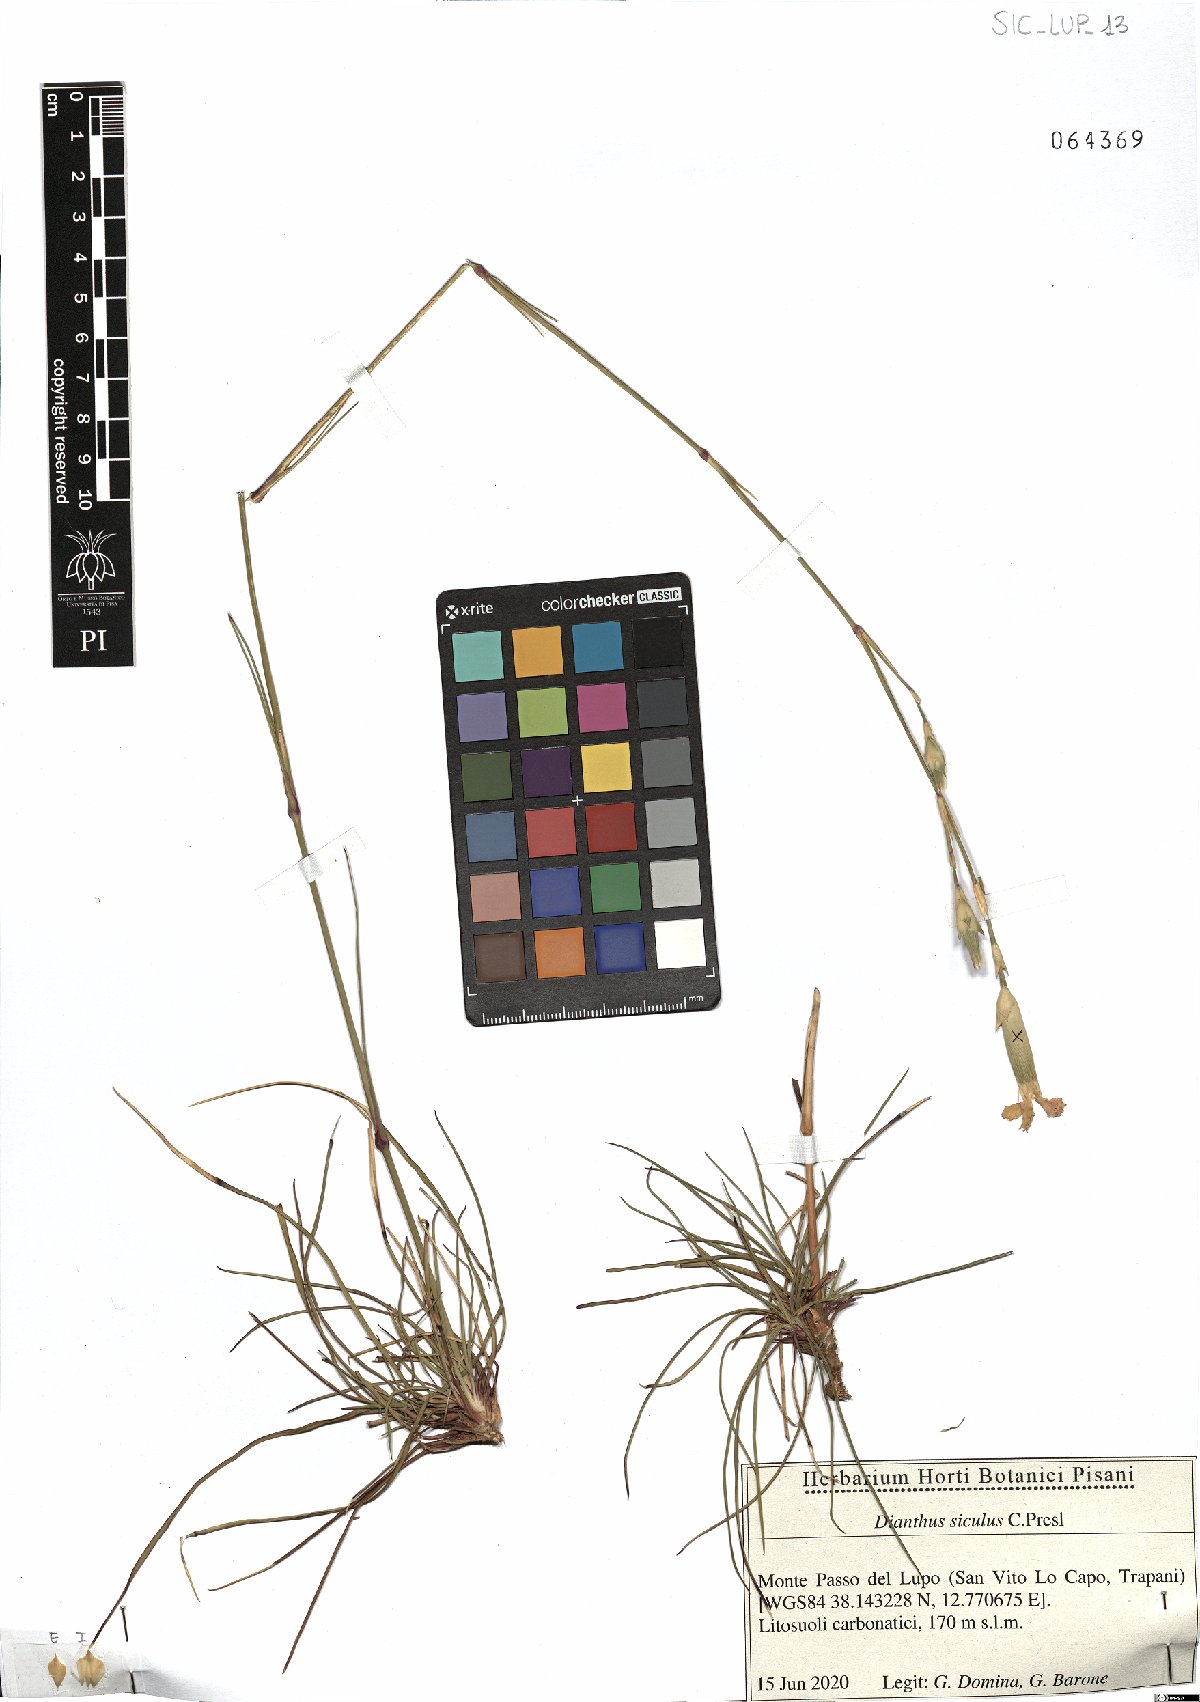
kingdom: Plantae
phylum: Tracheophyta
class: Magnoliopsida
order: Caryophyllales
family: Caryophyllaceae
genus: Dianthus
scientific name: Dianthus siculus
